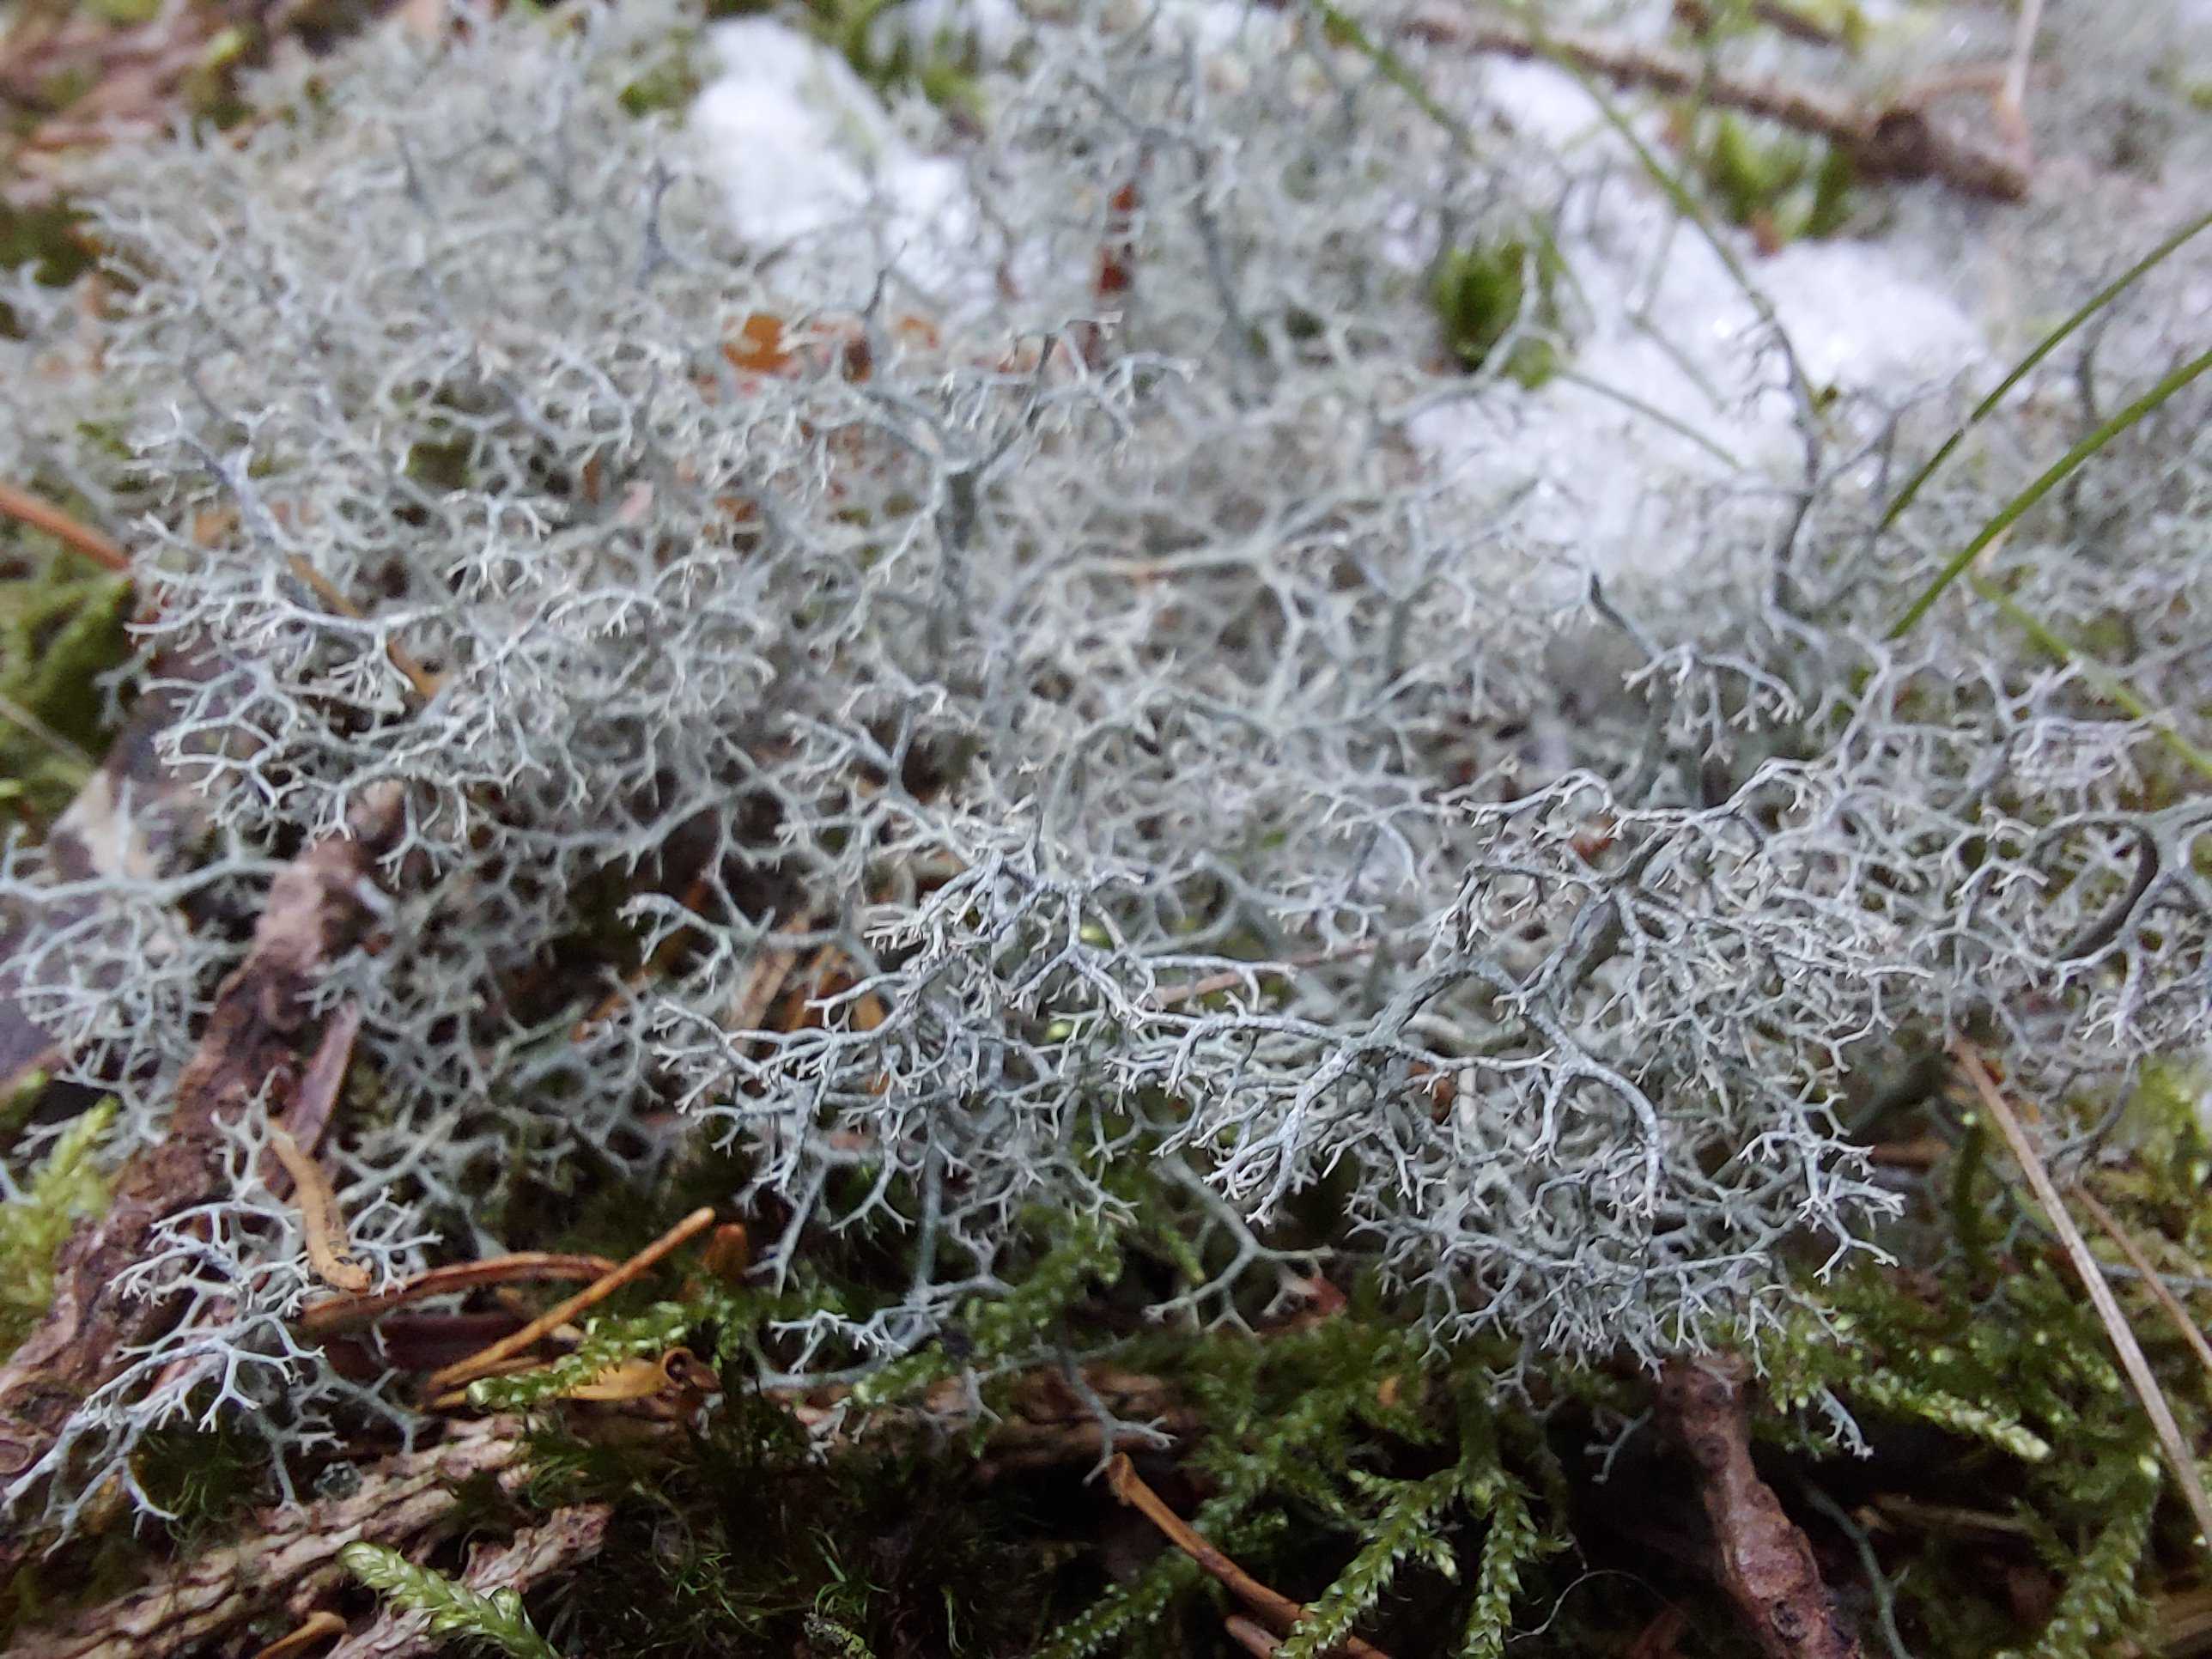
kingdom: Fungi
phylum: Ascomycota
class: Lecanoromycetes
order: Lecanorales
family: Cladoniaceae
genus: Cladonia
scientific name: Cladonia portentosa
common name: hede-rensdyrlav
